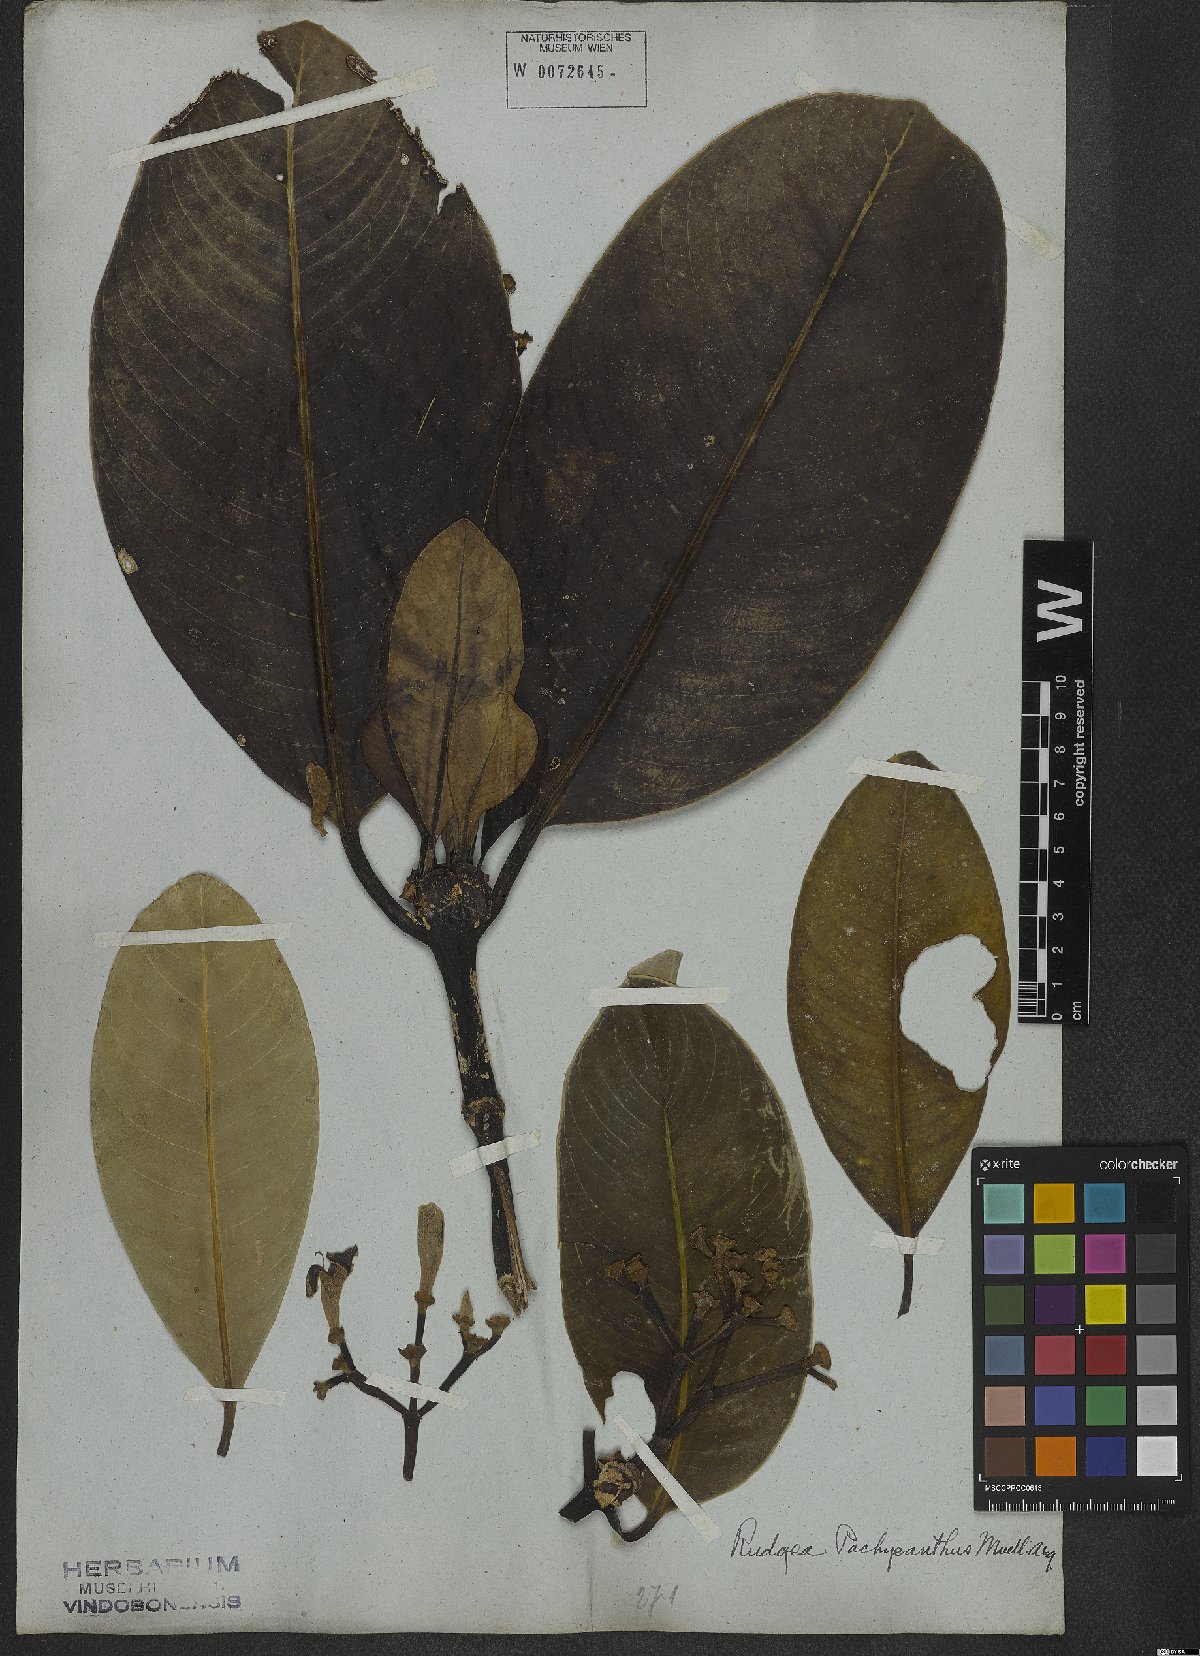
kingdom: Plantae
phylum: Tracheophyta
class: Magnoliopsida
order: Gentianales
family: Rubiaceae
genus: Rudgea
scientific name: Rudgea vellerea
